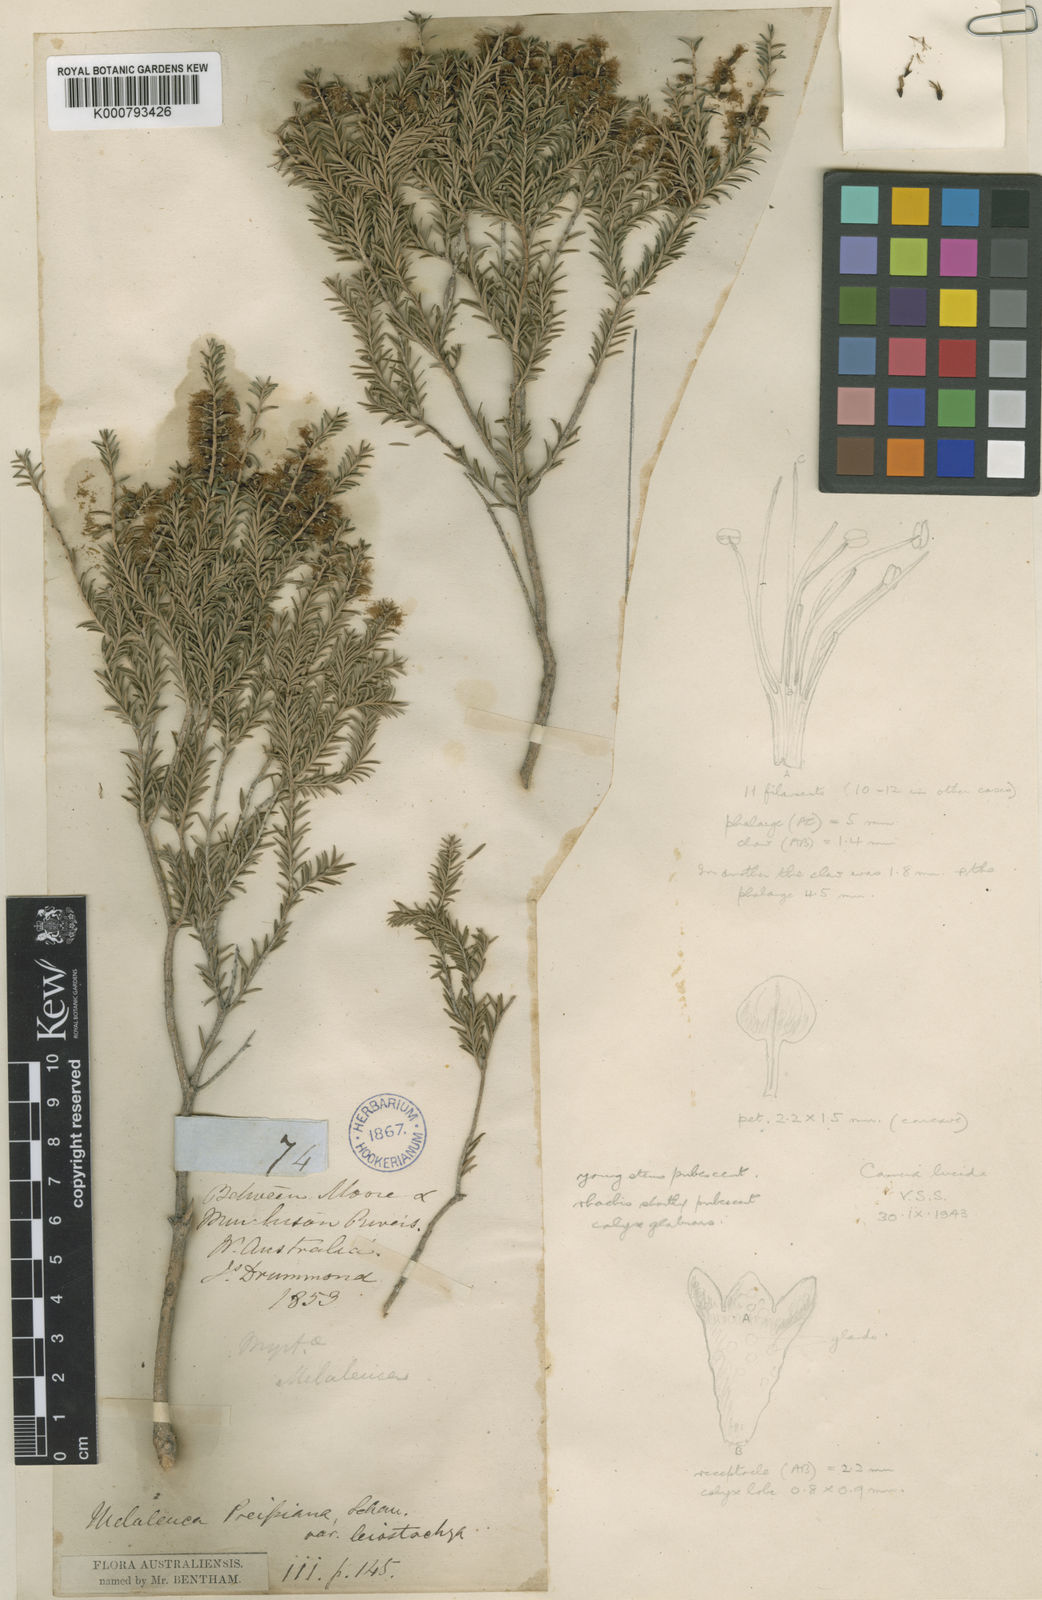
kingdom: Plantae
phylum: Tracheophyta
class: Magnoliopsida
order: Myrtales
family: Myrtaceae
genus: Melaleuca
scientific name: Melaleuca lanceolata
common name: Rottnest island teatree
